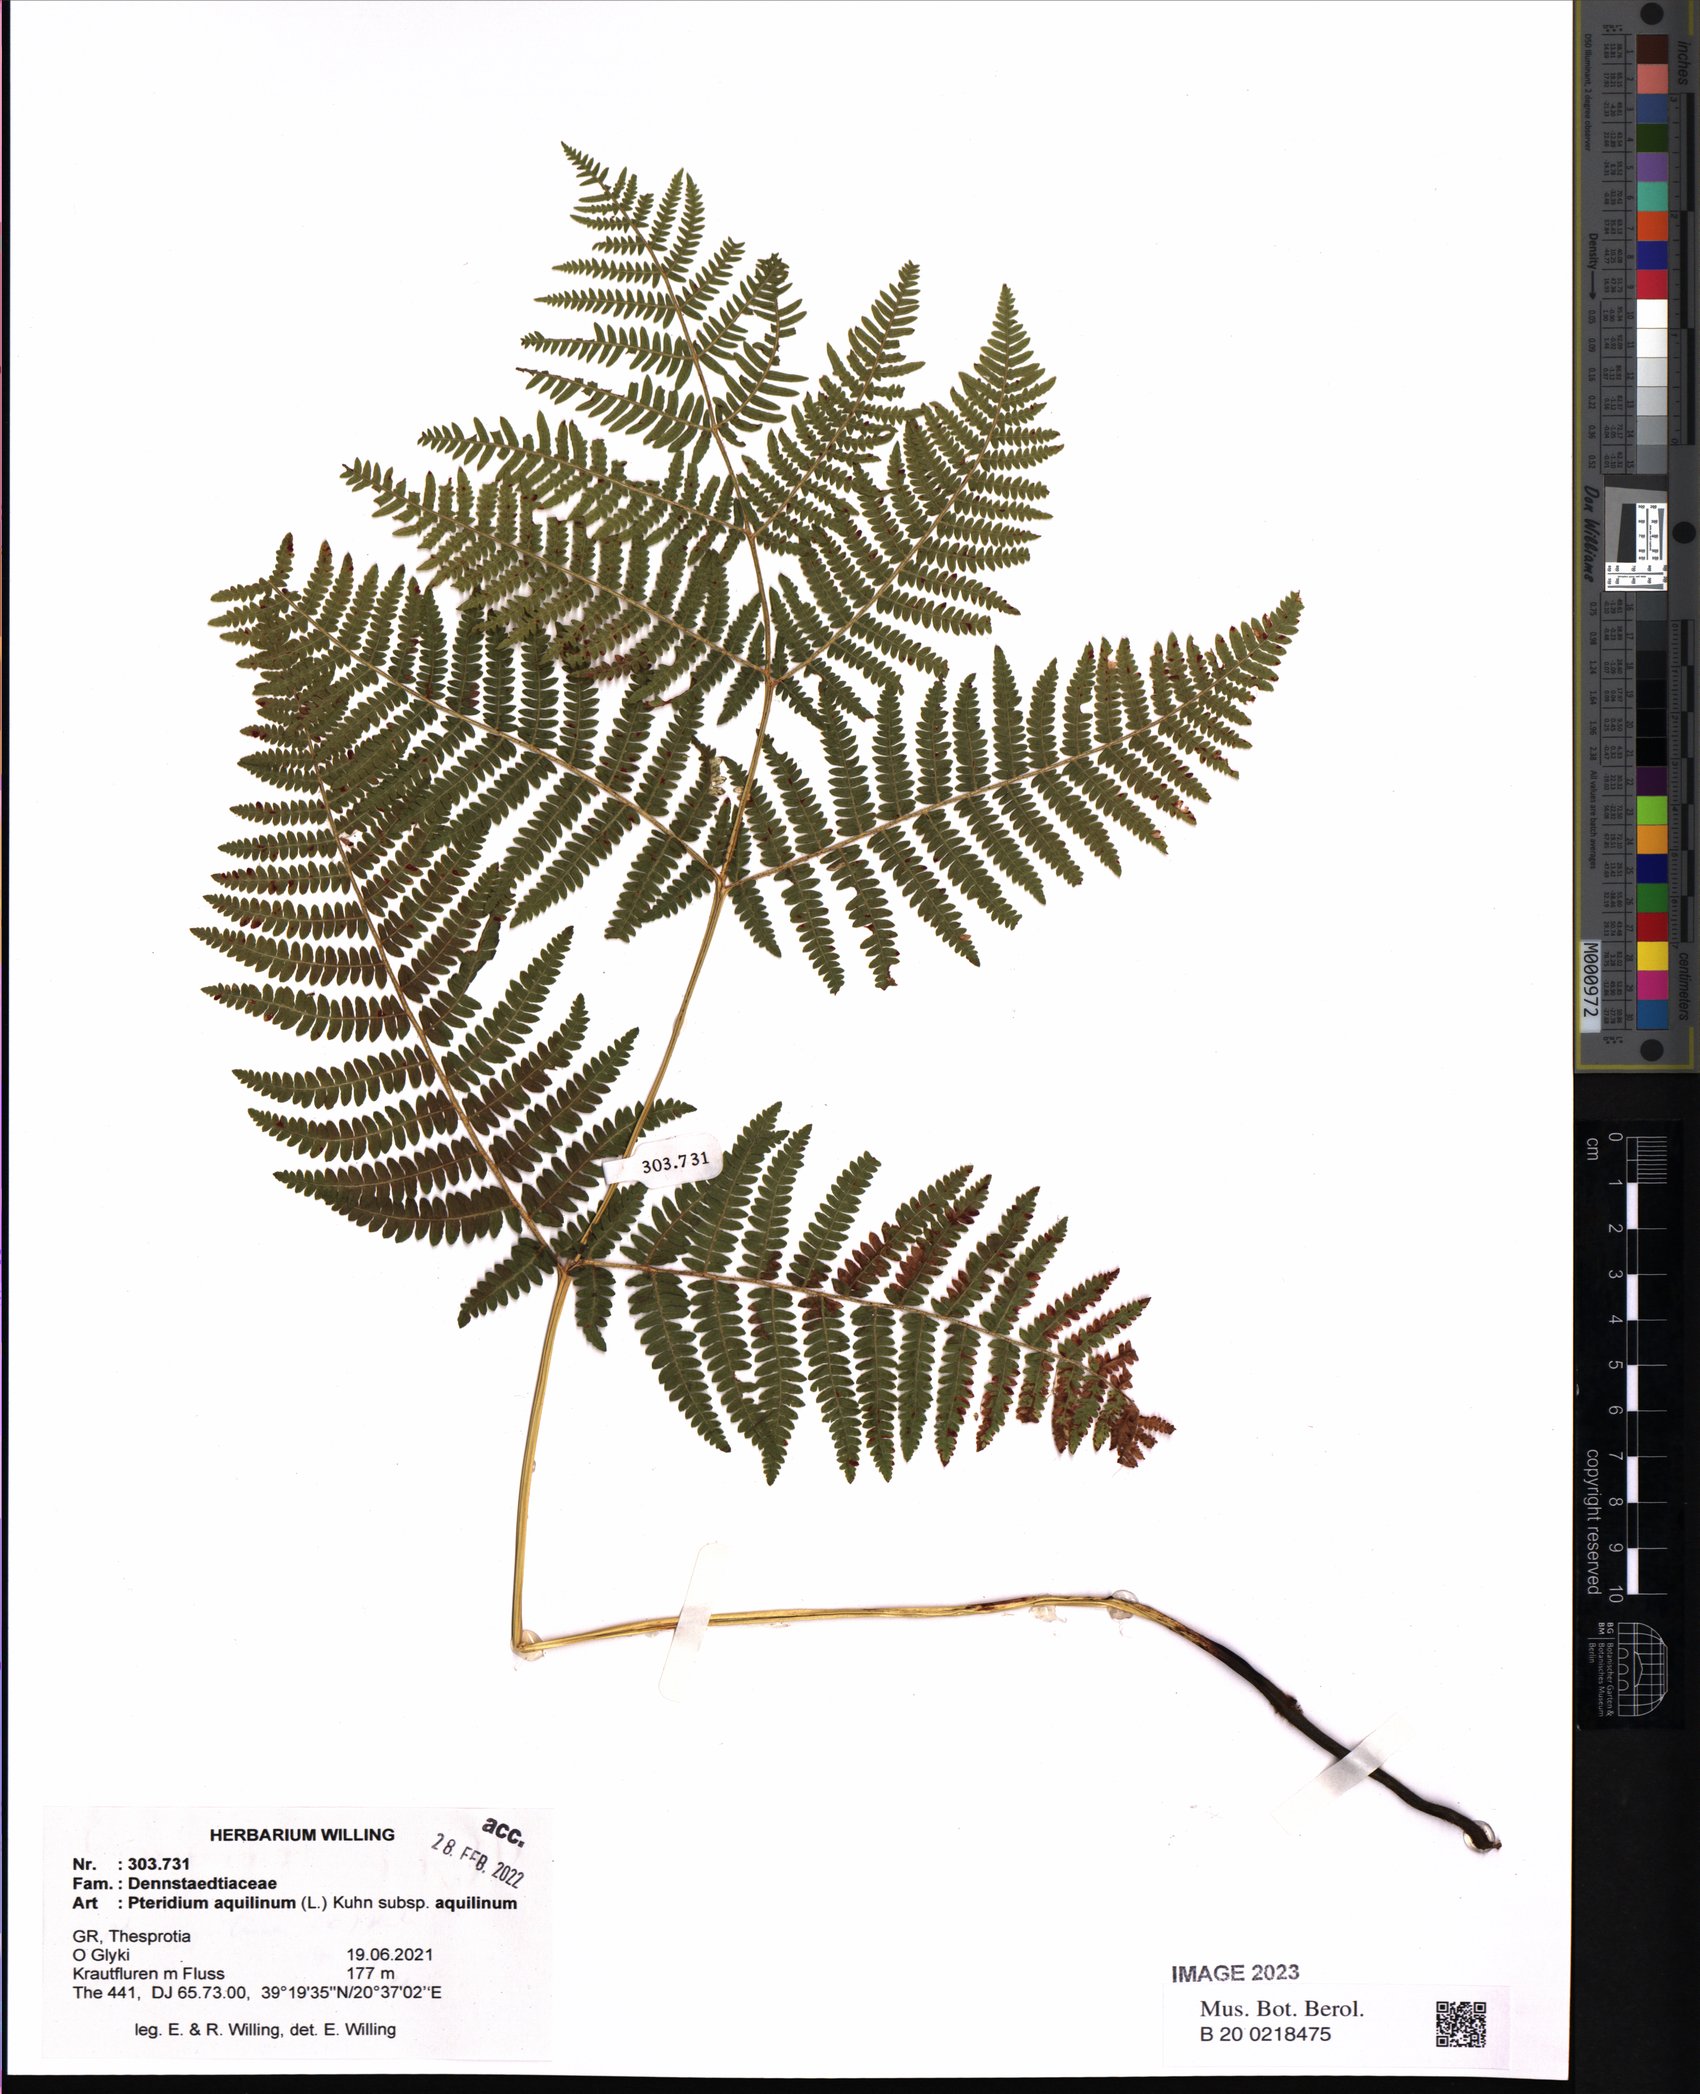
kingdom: Plantae
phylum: Tracheophyta
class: Polypodiopsida
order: Polypodiales
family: Dennstaedtiaceae
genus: Pteridium
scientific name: Pteridium aquilinum
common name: Bracken
